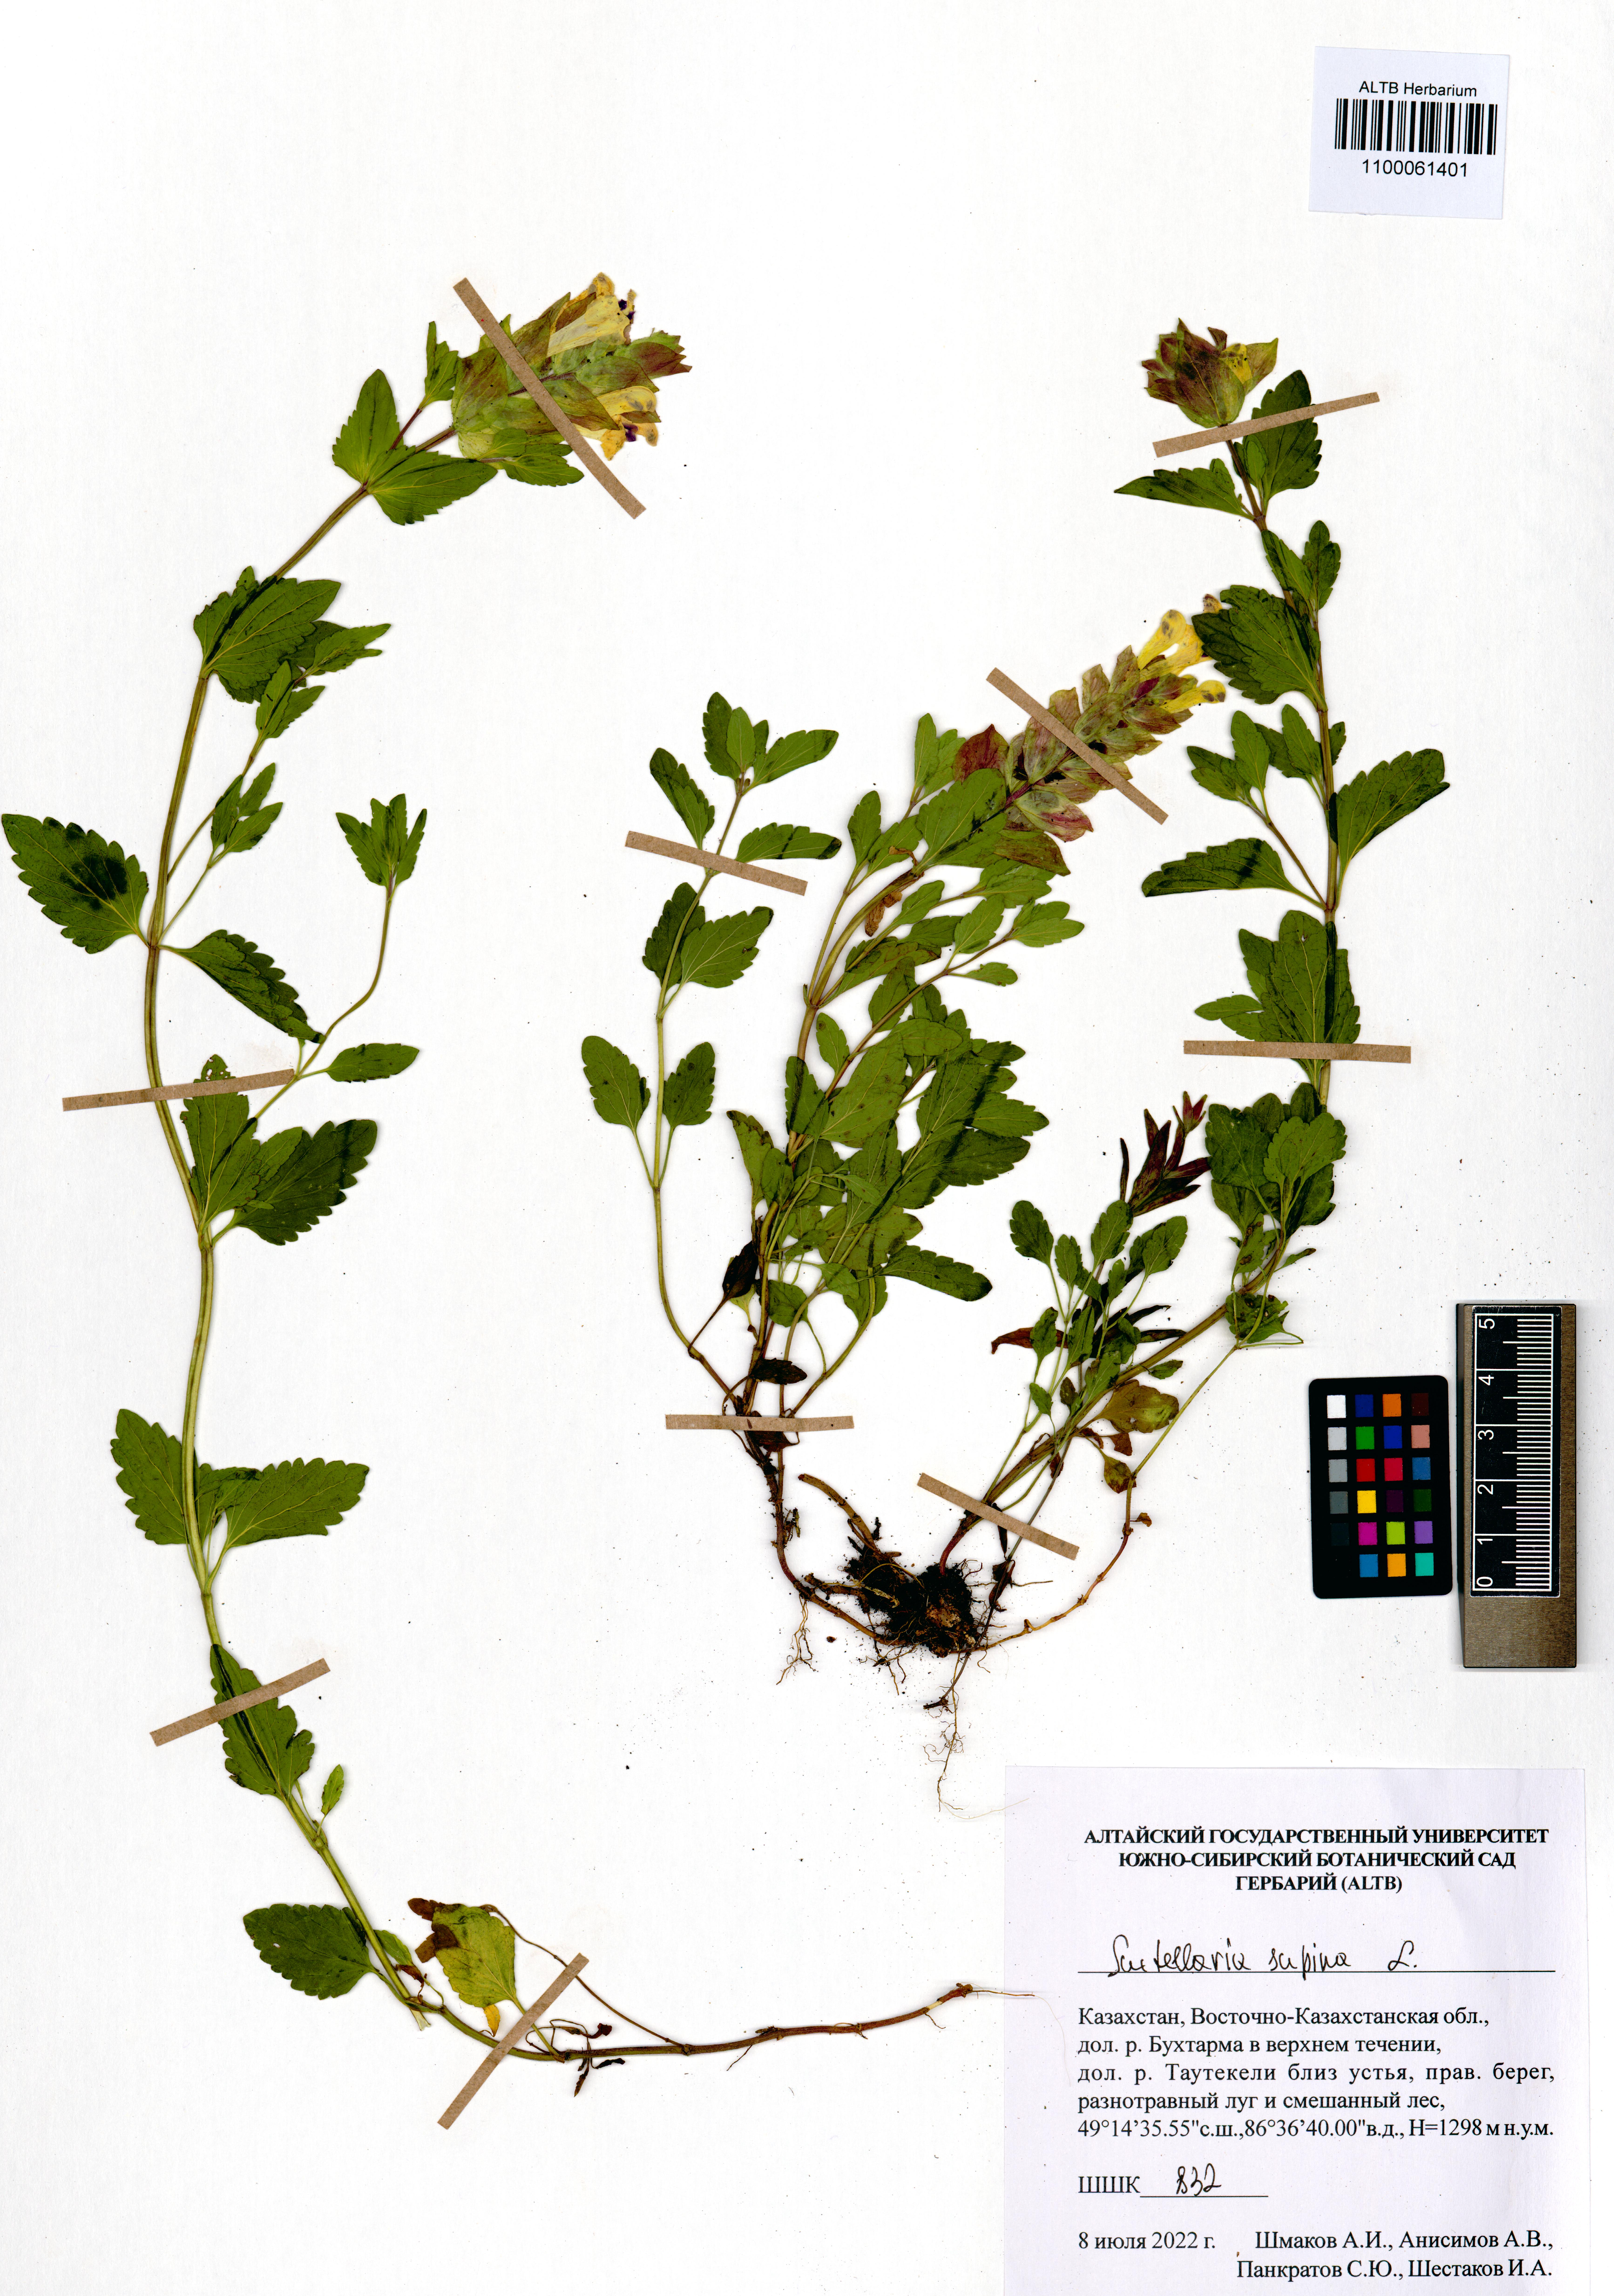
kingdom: Plantae
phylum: Tracheophyta
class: Magnoliopsida
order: Lamiales
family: Lamiaceae
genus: Scutellaria
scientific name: Scutellaria supina
